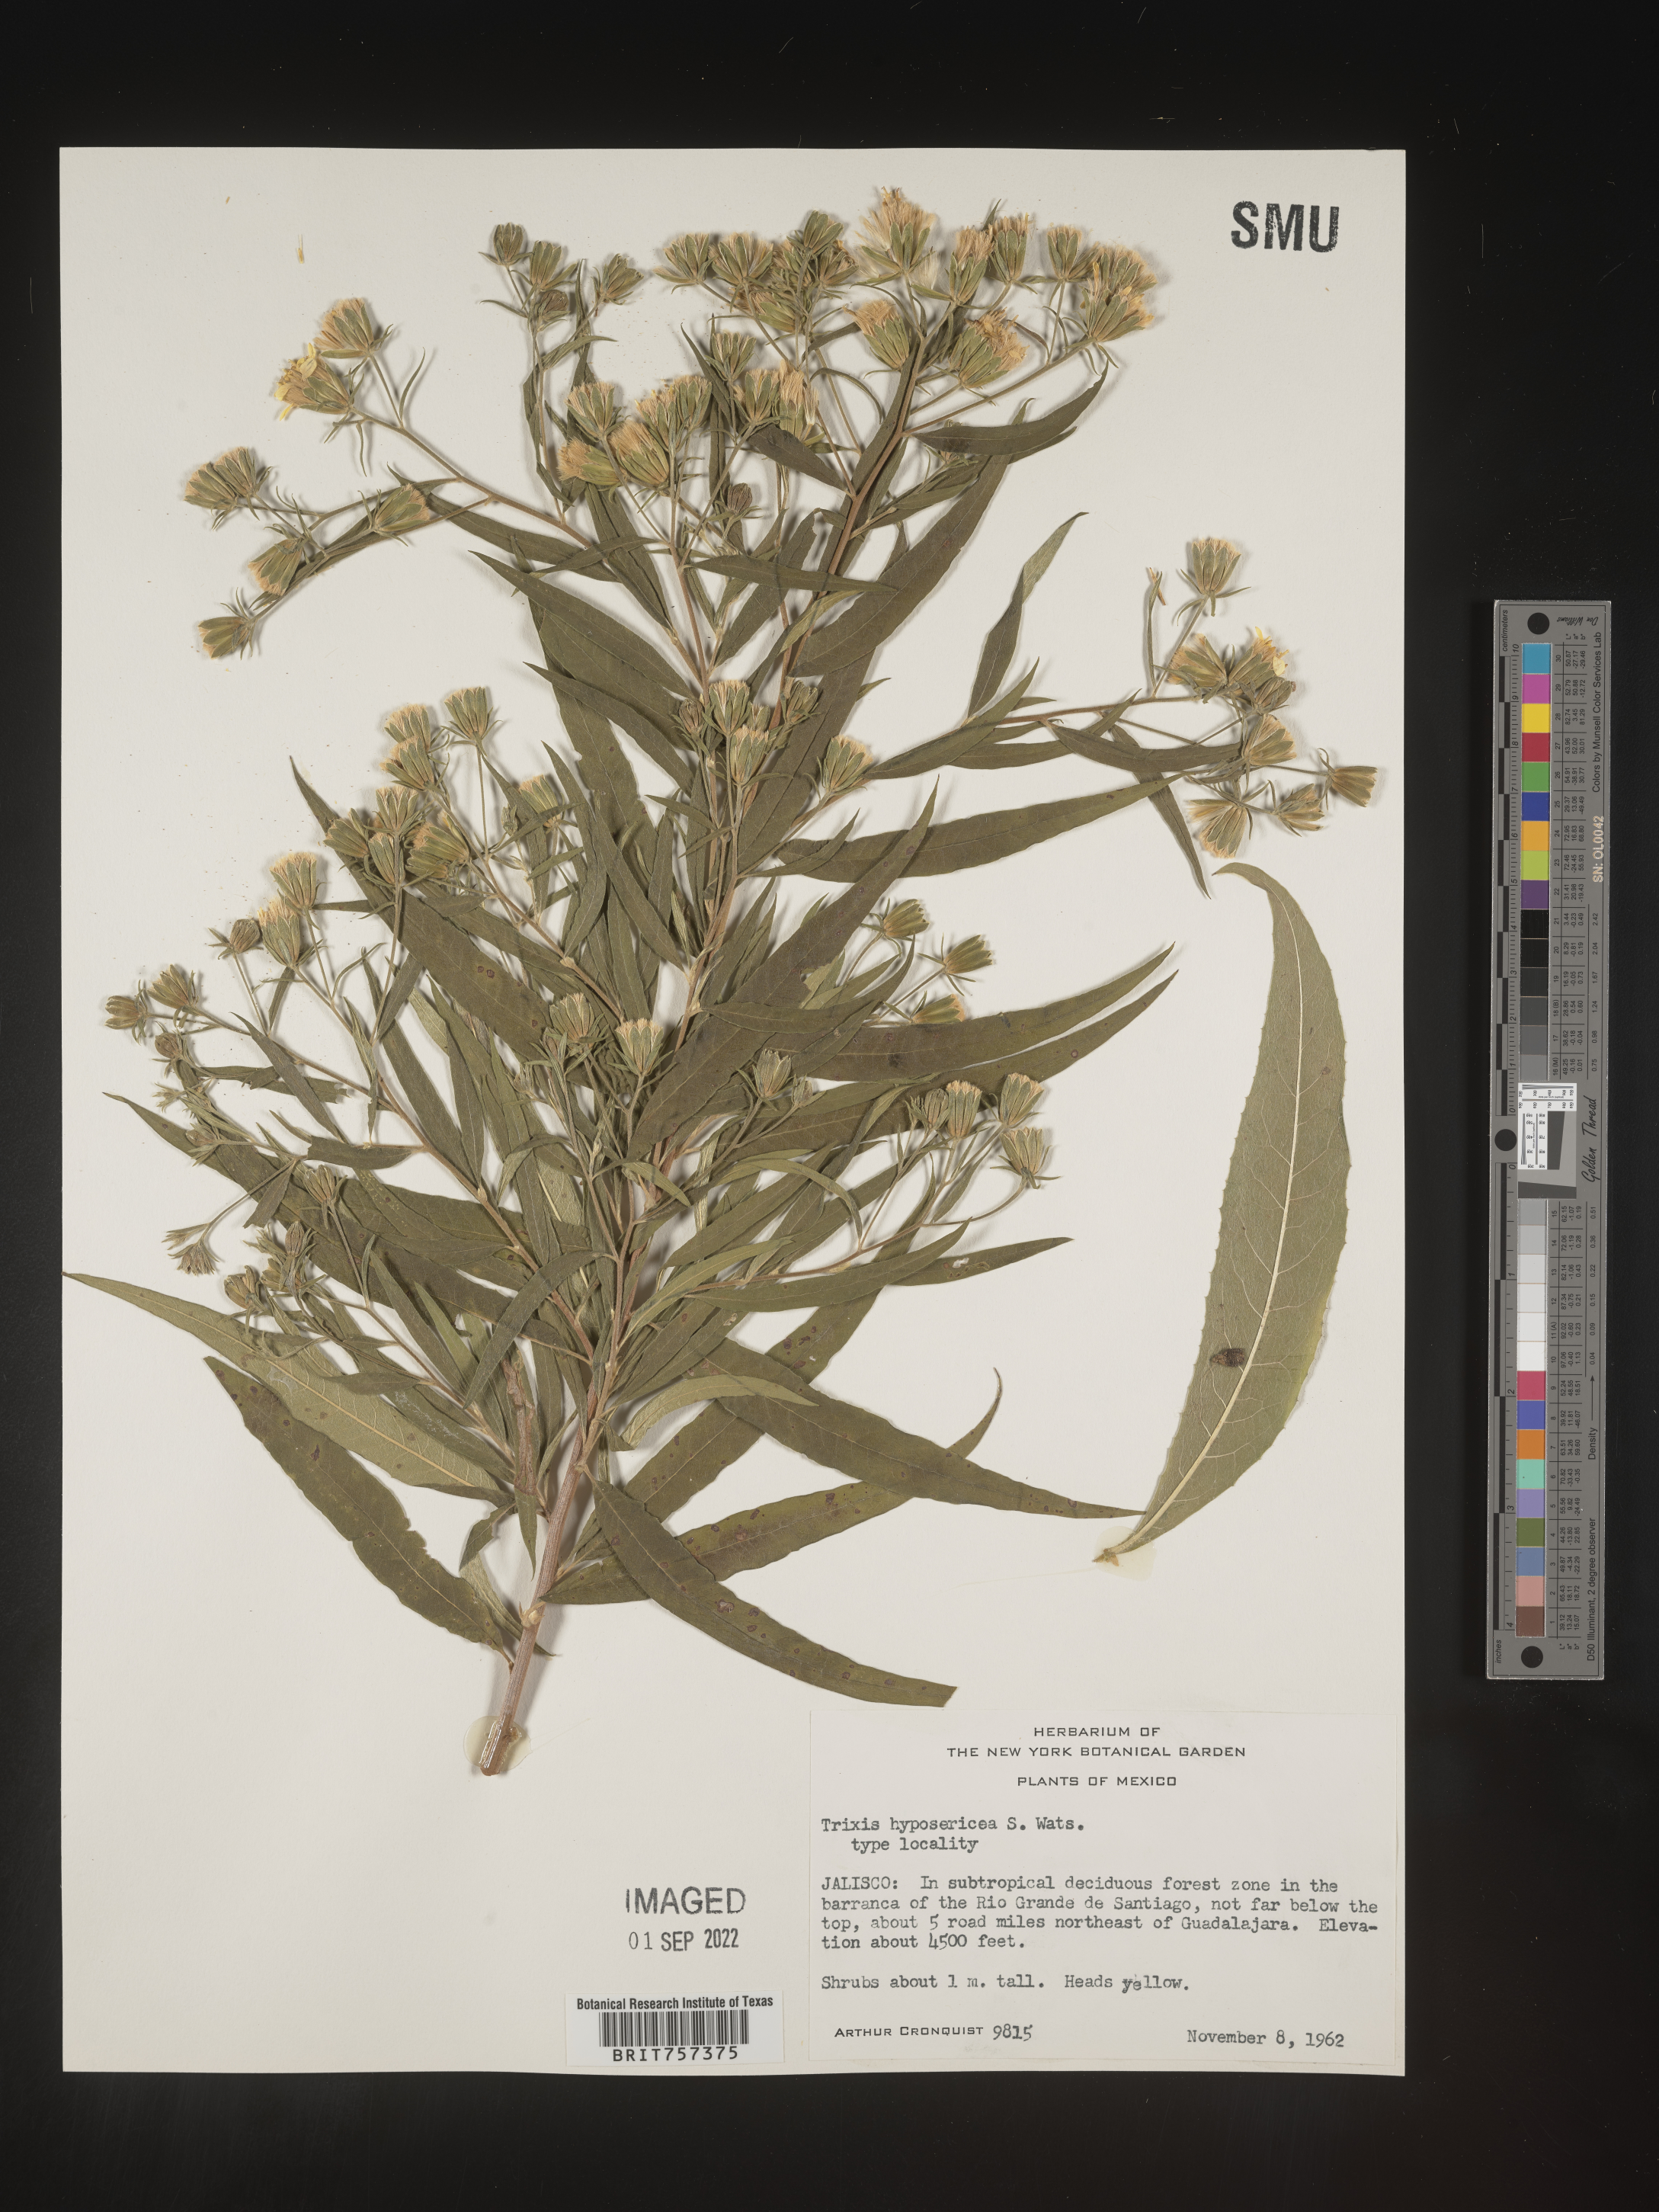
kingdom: Plantae
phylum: Tracheophyta
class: Magnoliopsida
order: Asterales
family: Asteraceae
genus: Trixis
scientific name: Trixis
